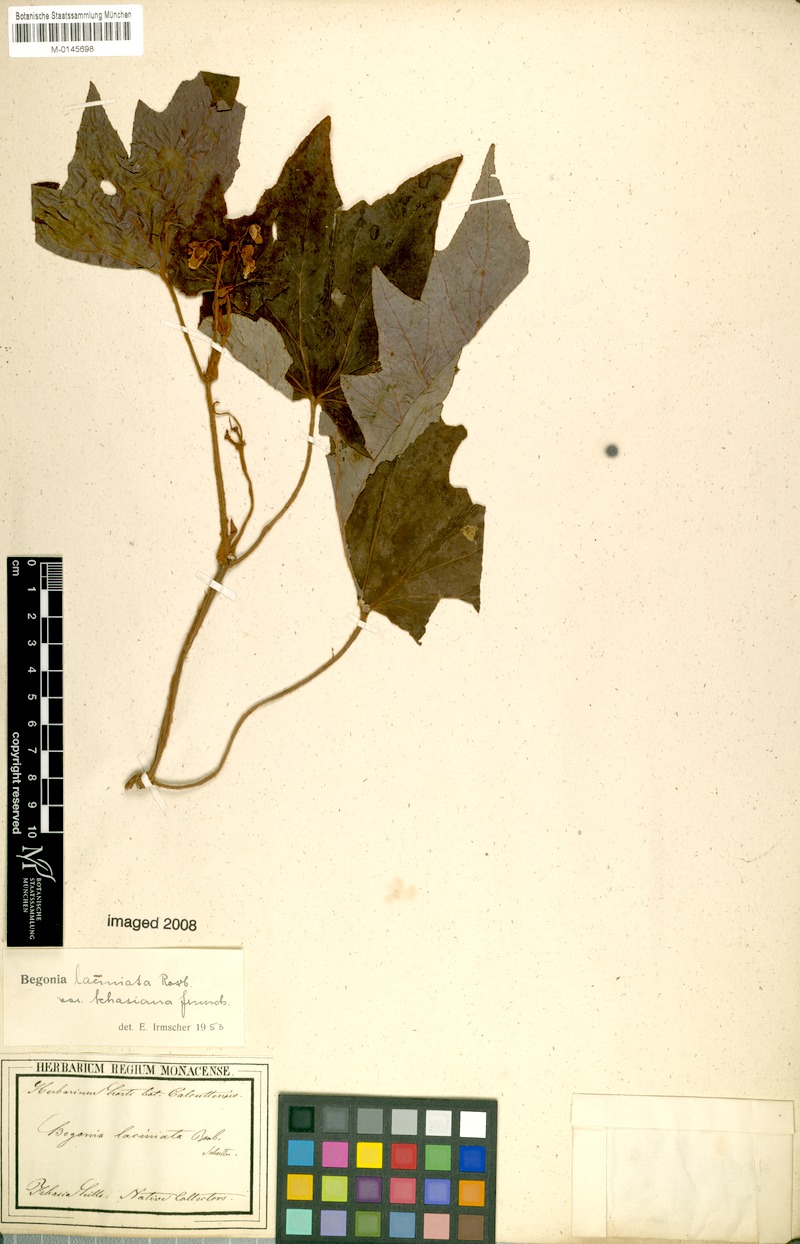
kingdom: Plantae
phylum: Tracheophyta
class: Magnoliopsida
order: Cucurbitales
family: Begoniaceae
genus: Begonia
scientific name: Begonia palmata
